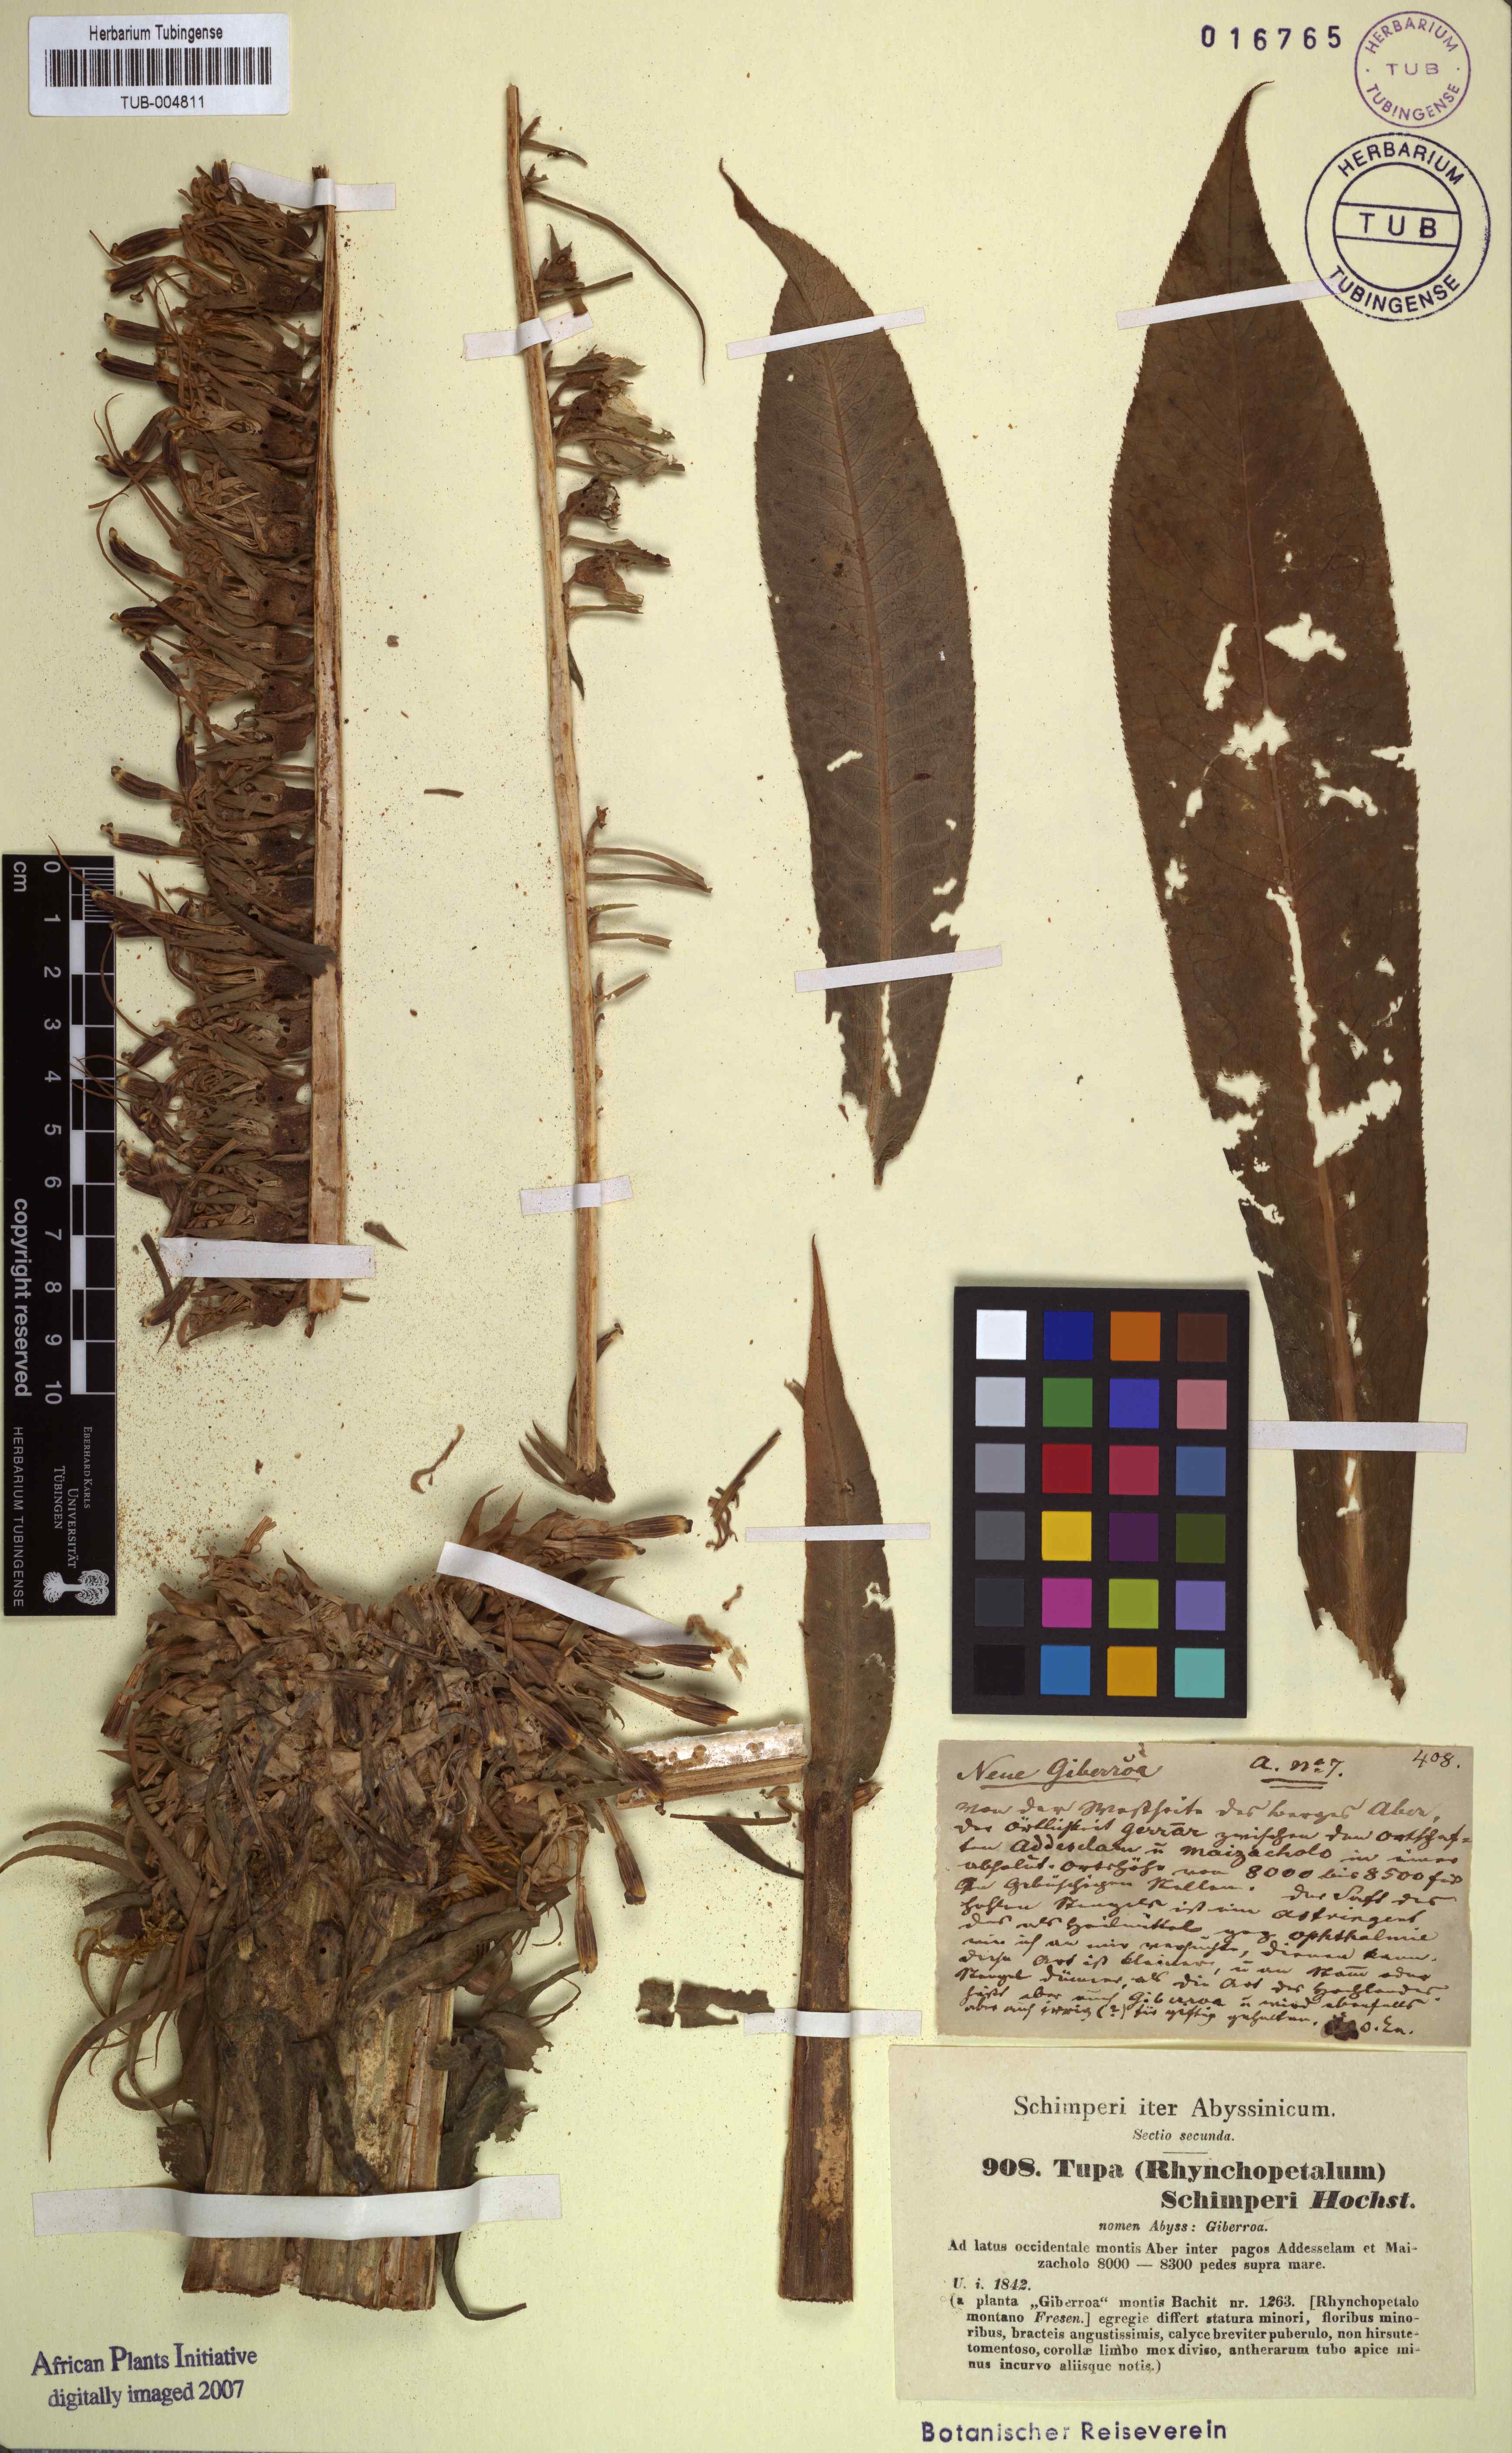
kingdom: Plantae
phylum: Tracheophyta
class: Magnoliopsida
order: Asterales
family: Campanulaceae
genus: Lobelia
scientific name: Lobelia giberroa
